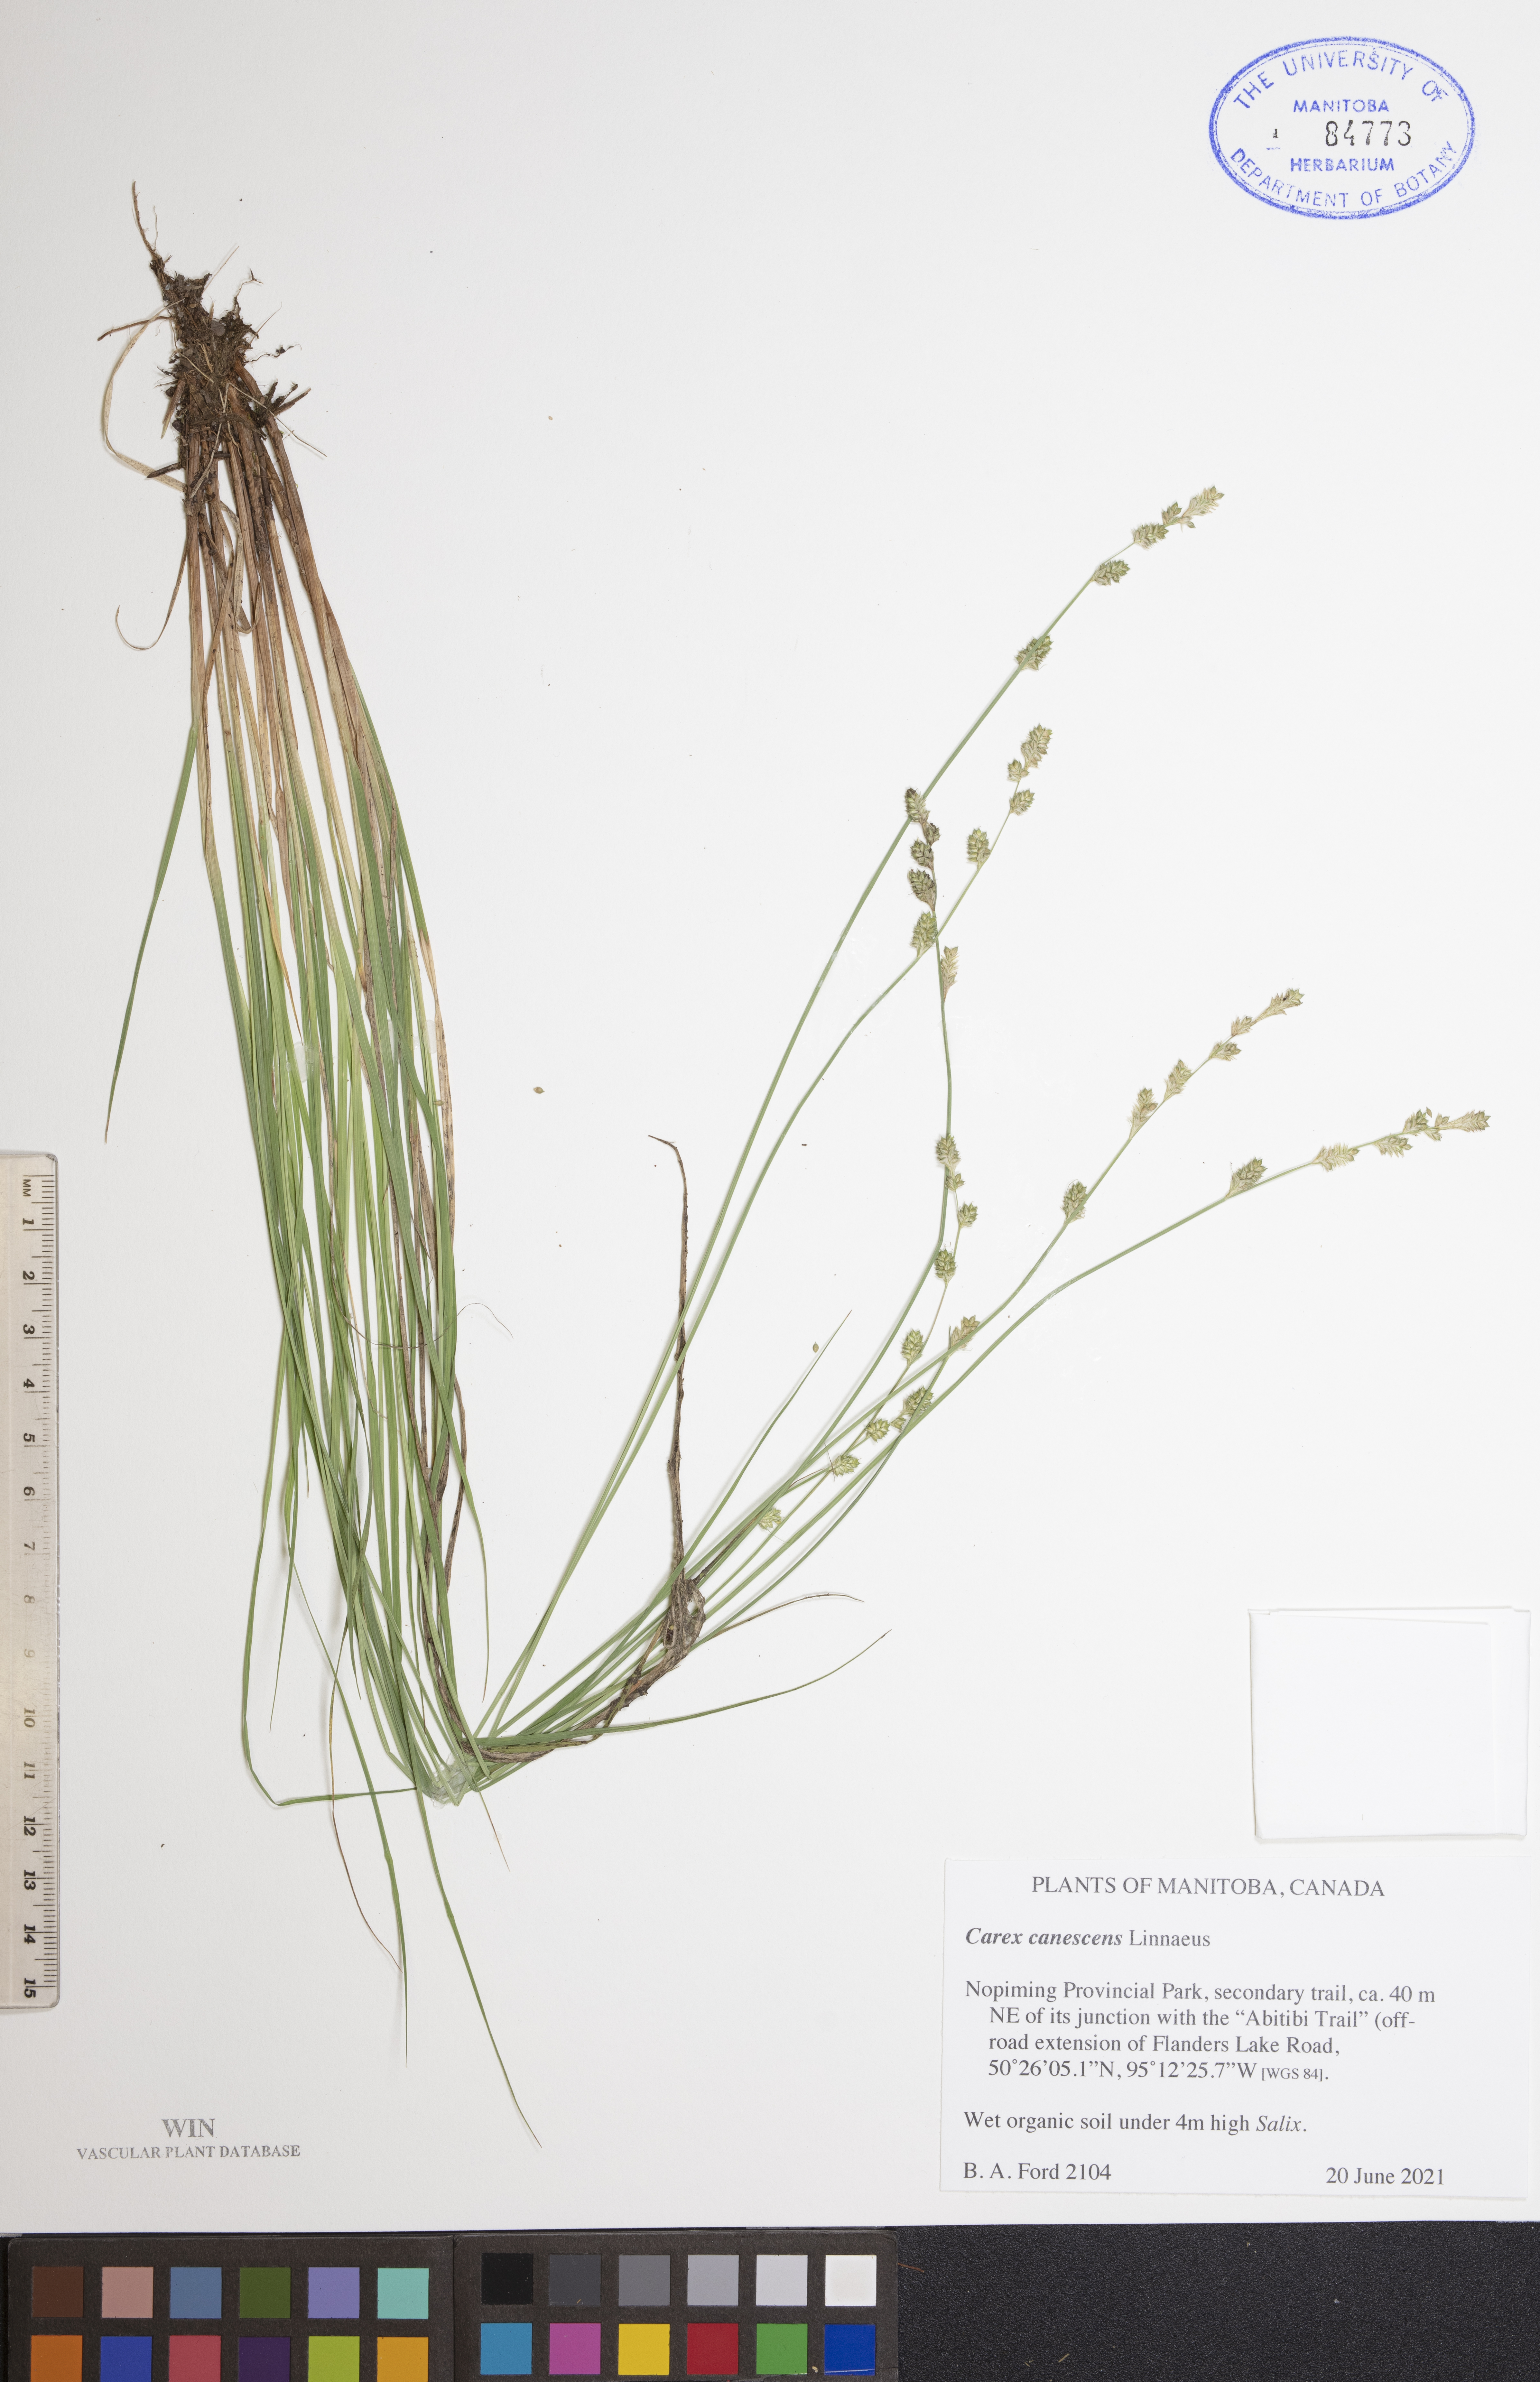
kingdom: Plantae
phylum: Tracheophyta
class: Liliopsida
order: Poales
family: Cyperaceae
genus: Carex
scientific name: Carex canescens
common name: White sedge
